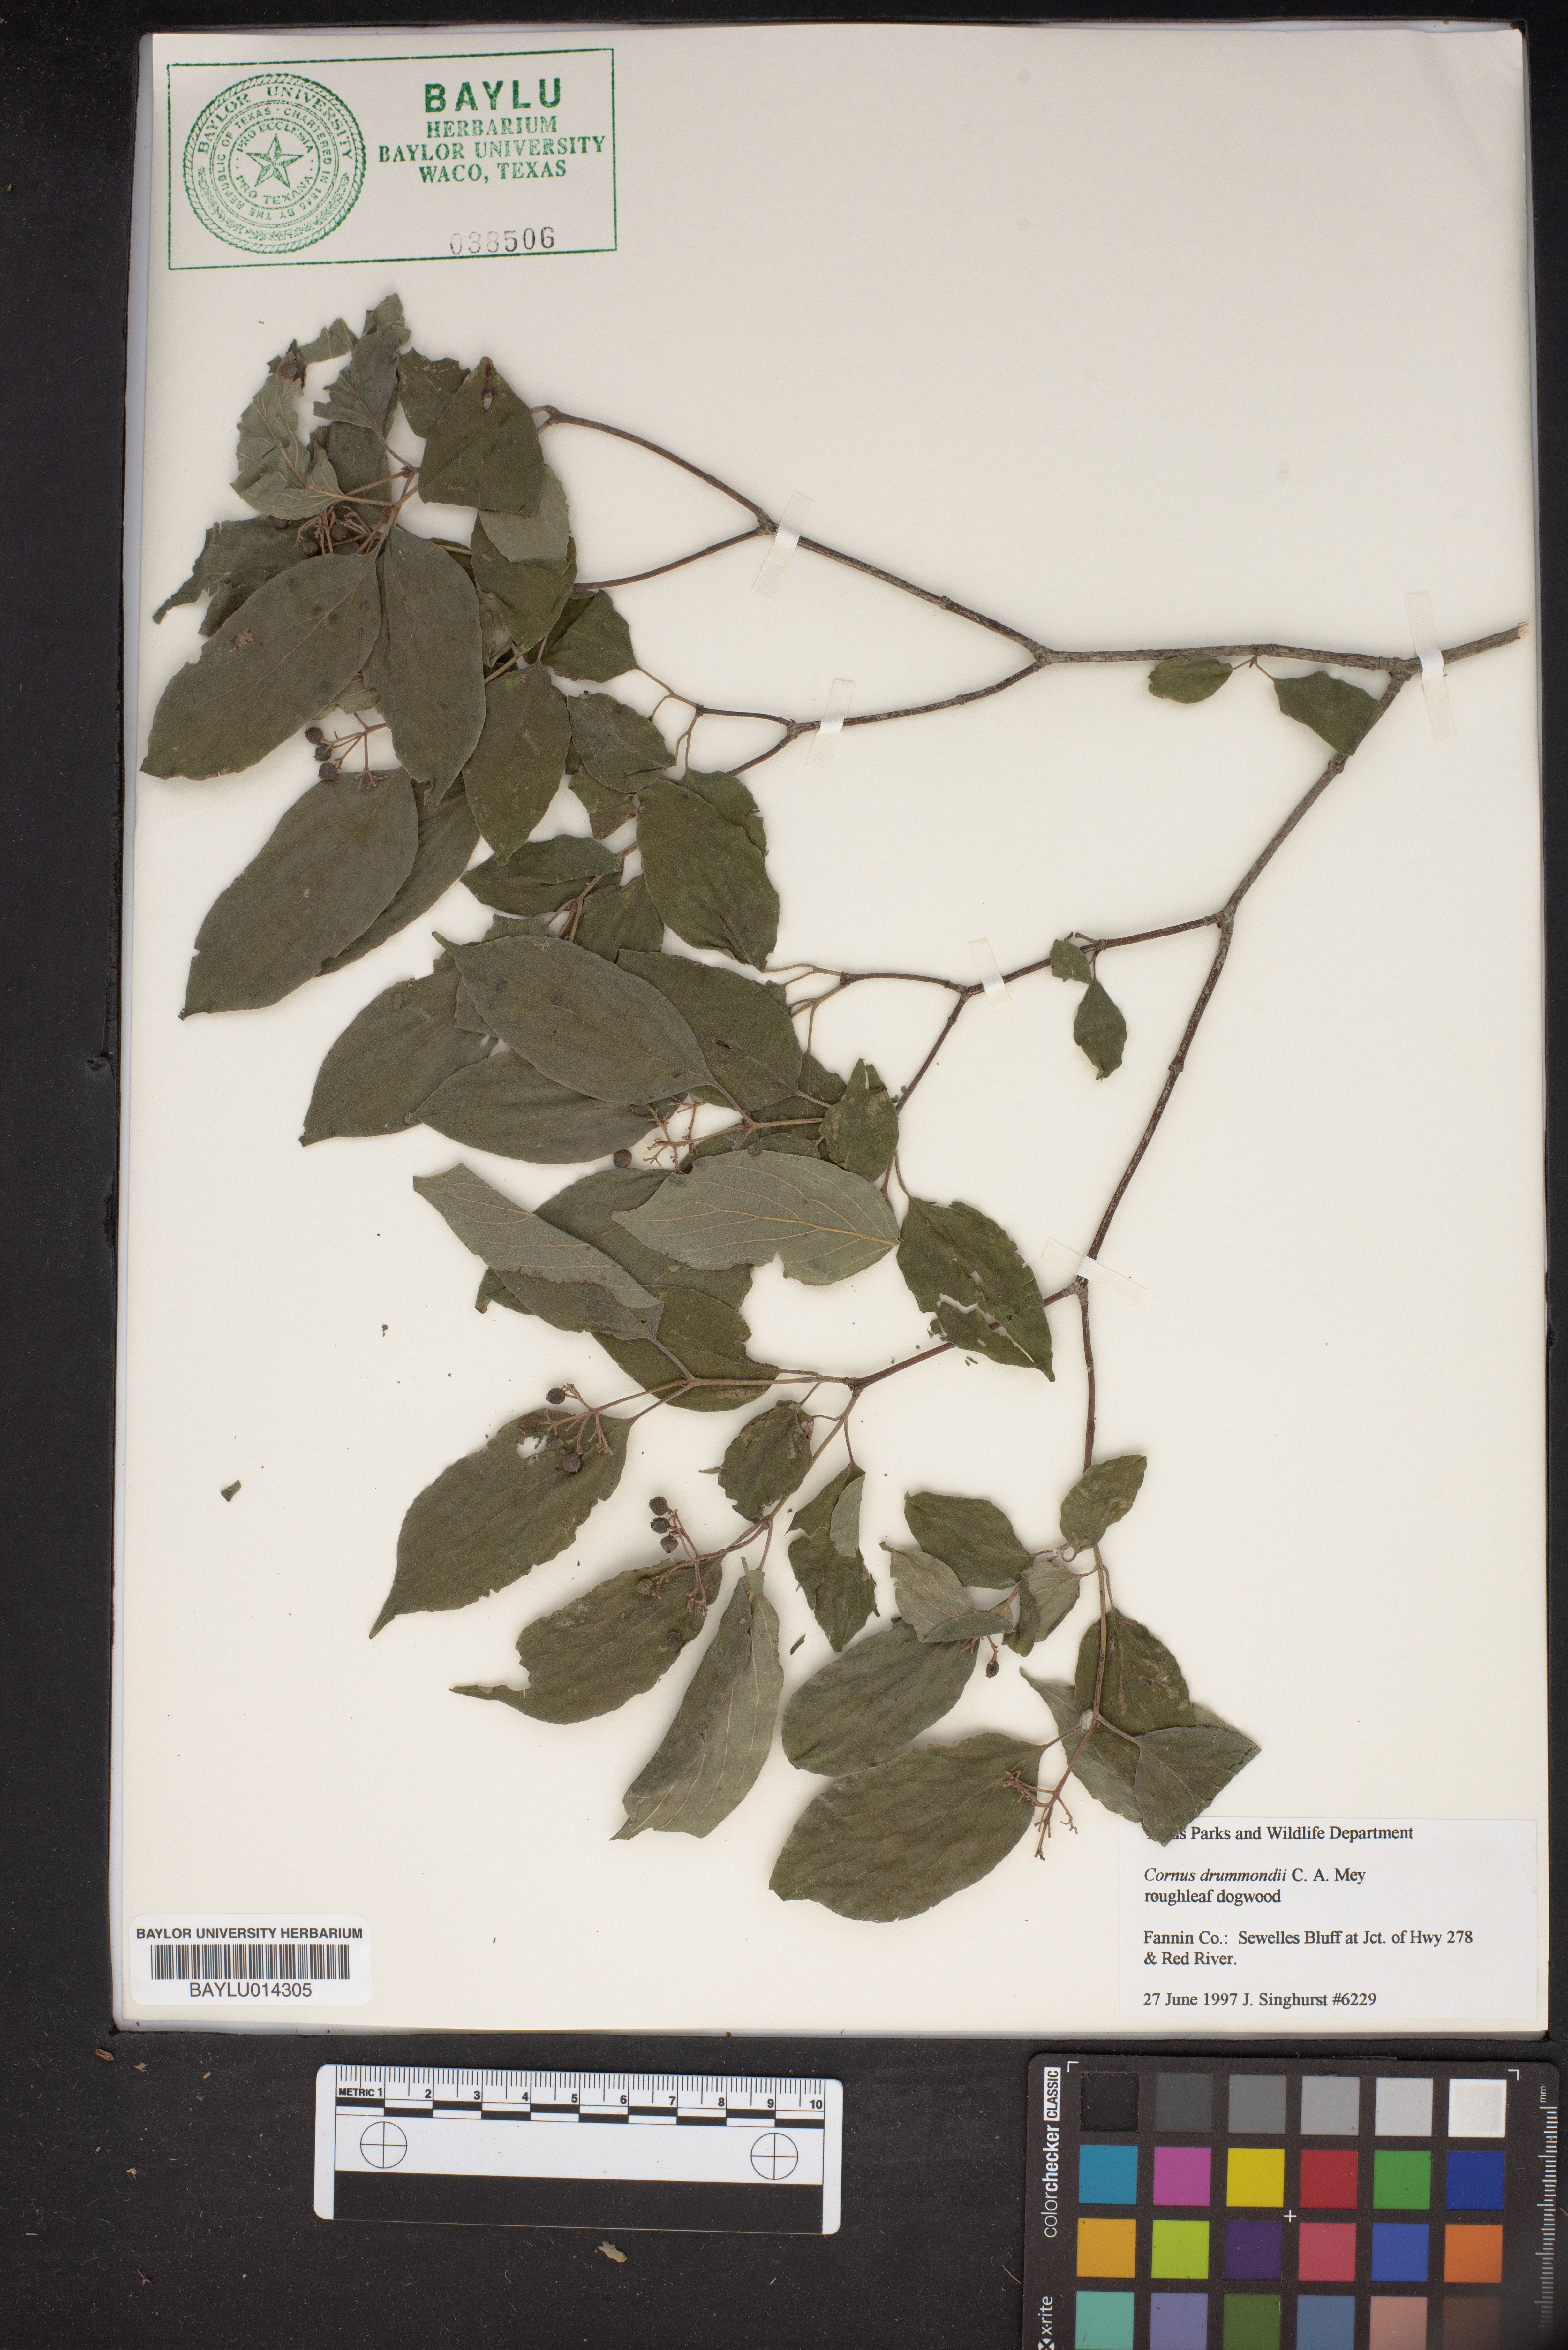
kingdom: Plantae
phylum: Tracheophyta
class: Magnoliopsida
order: Cornales
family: Cornaceae
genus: Cornus
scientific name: Cornus drummondii
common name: Rough-leaf dogwood
